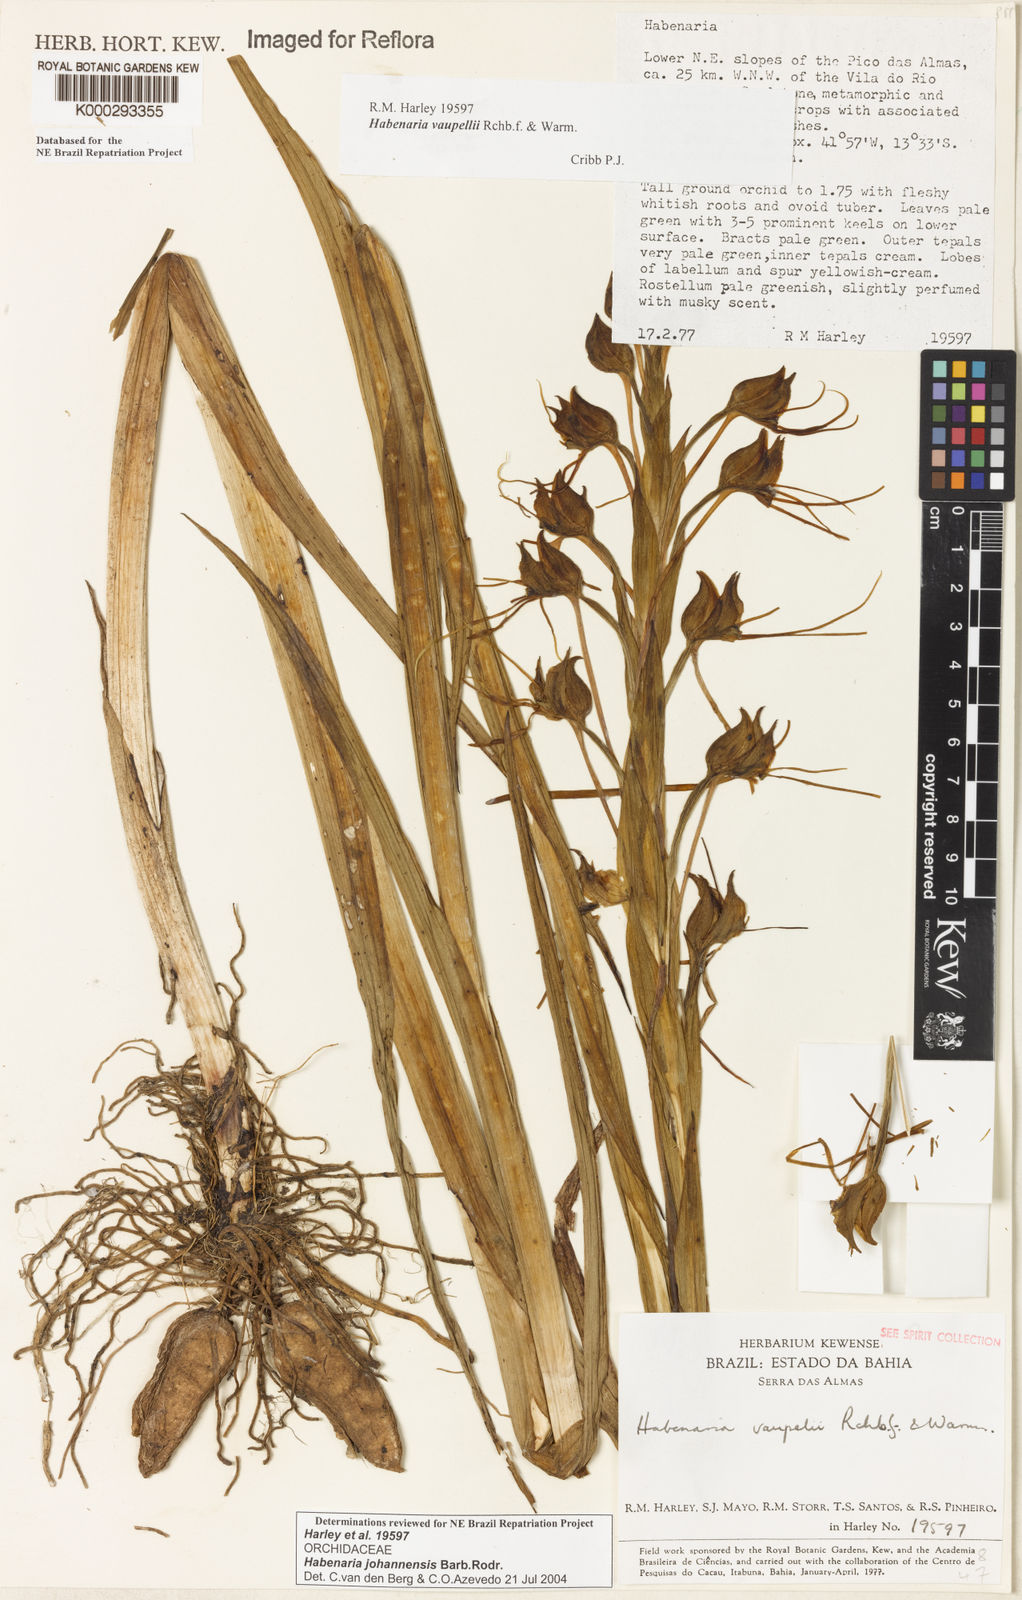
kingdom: Plantae
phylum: Tracheophyta
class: Liliopsida
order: Asparagales
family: Orchidaceae
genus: Habenaria
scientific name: Habenaria johannensis
